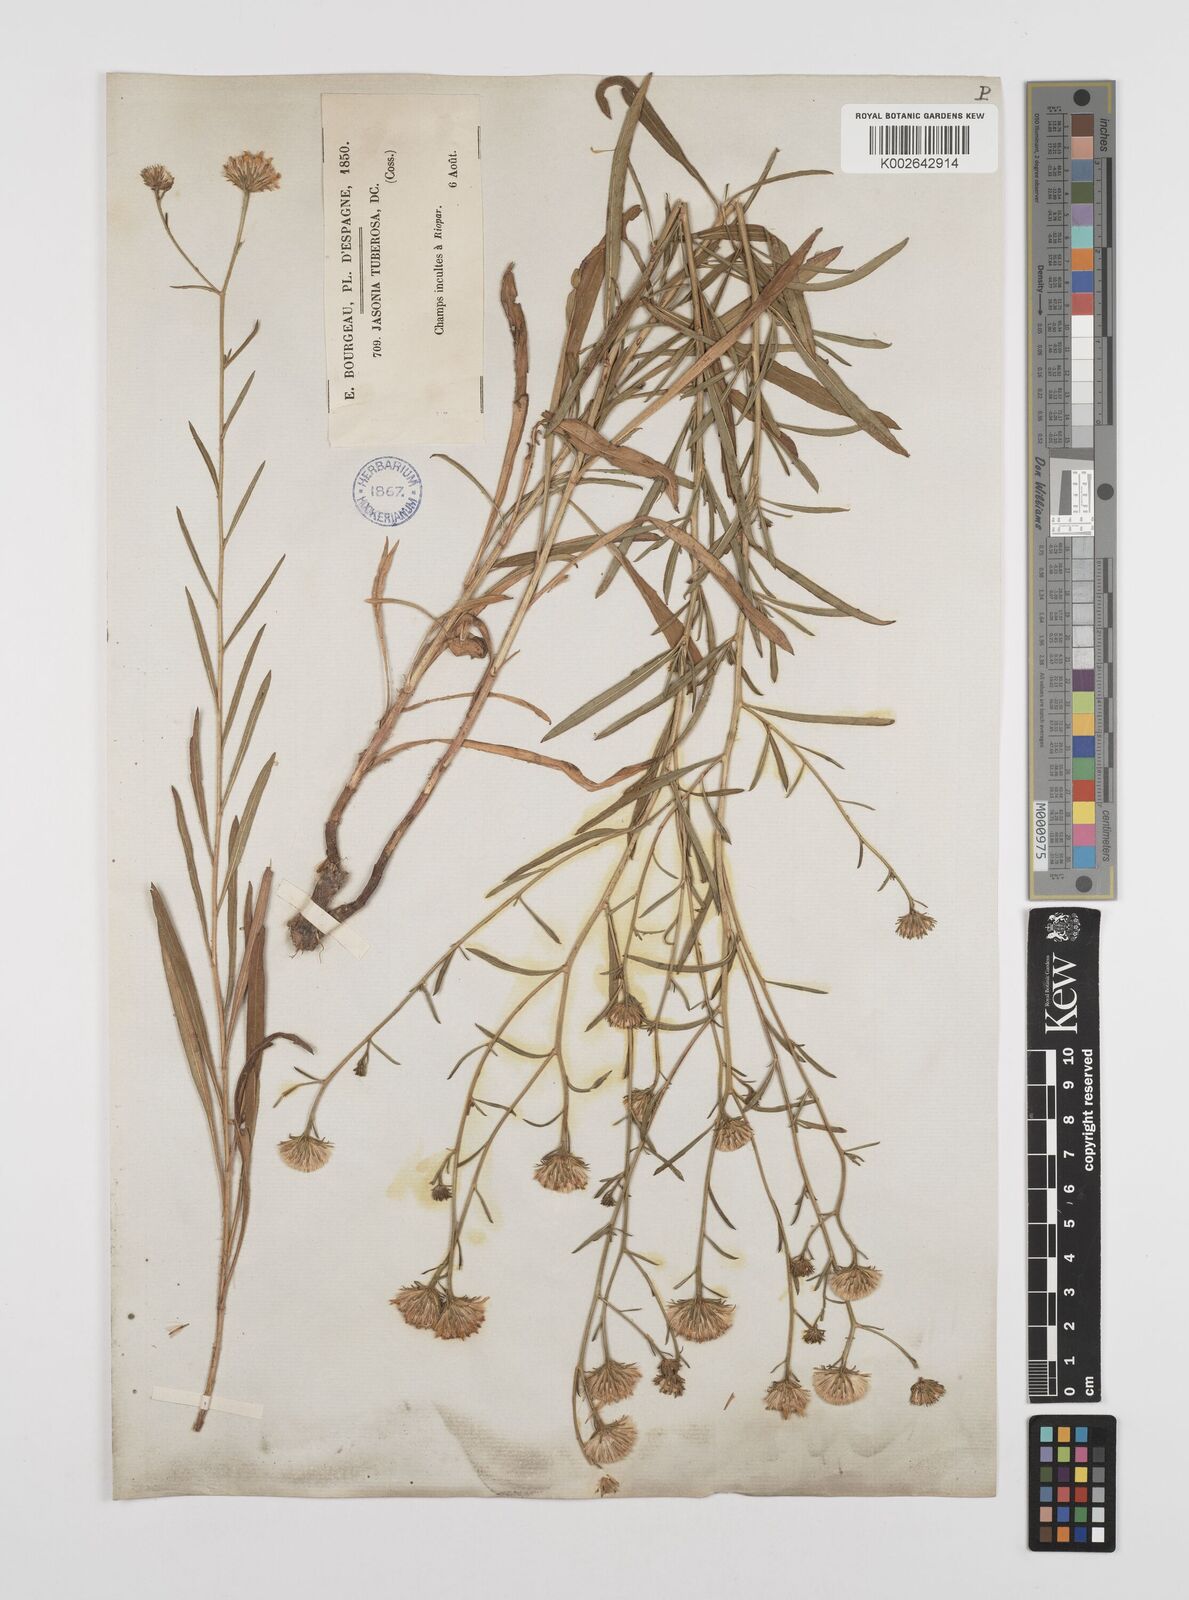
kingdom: Plantae
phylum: Tracheophyta
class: Magnoliopsida
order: Asterales
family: Asteraceae
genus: Jasonia
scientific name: Jasonia tuberosa
